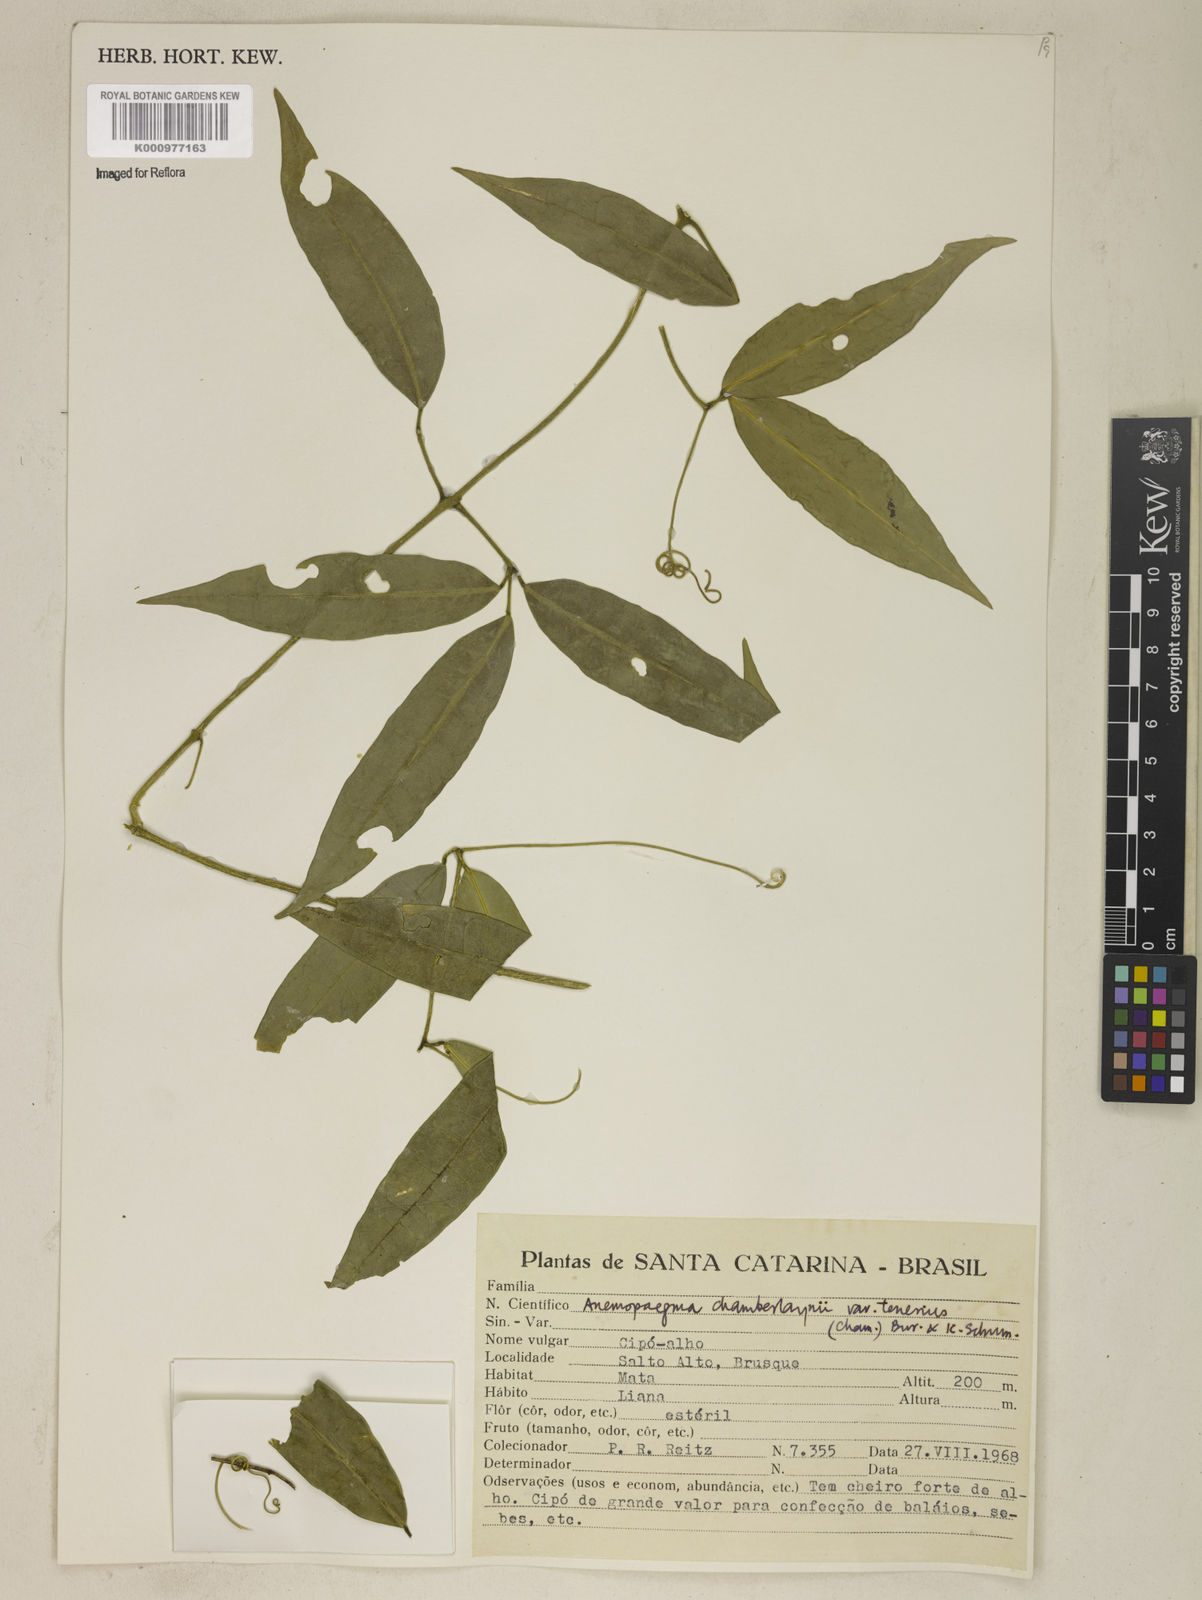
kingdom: Plantae
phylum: Tracheophyta
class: Magnoliopsida
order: Lamiales
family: Bignoniaceae
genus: Anemopaegma
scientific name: Anemopaegma chamberlaynii
